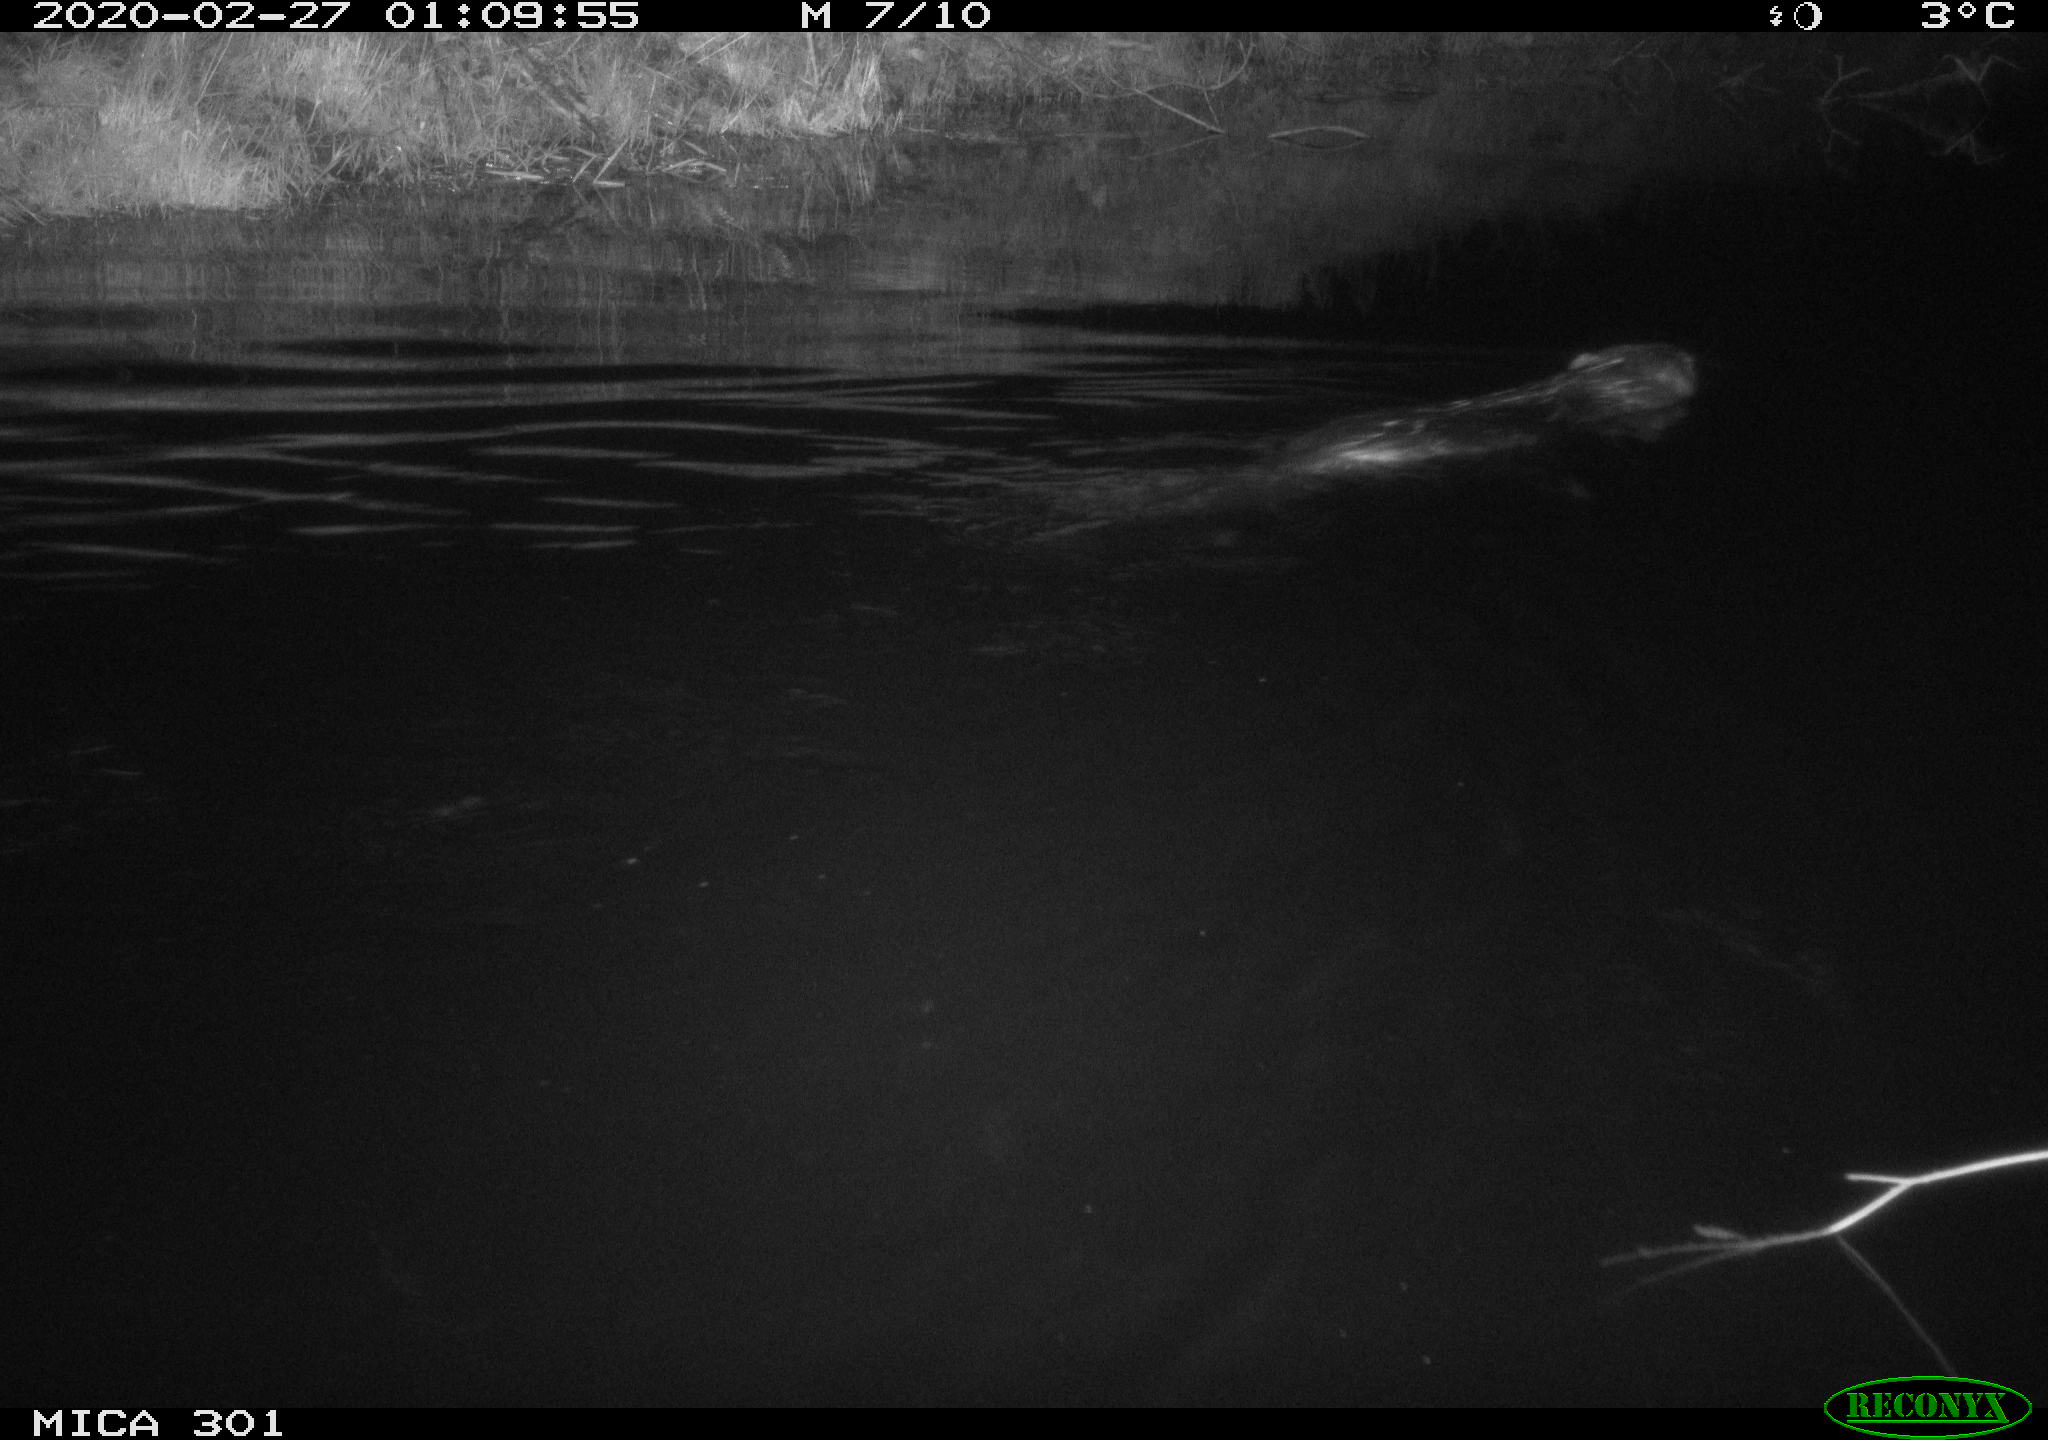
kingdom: Animalia
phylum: Chordata
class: Mammalia
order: Rodentia
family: Castoridae
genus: Castor
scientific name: Castor fiber
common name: Eurasian beaver
